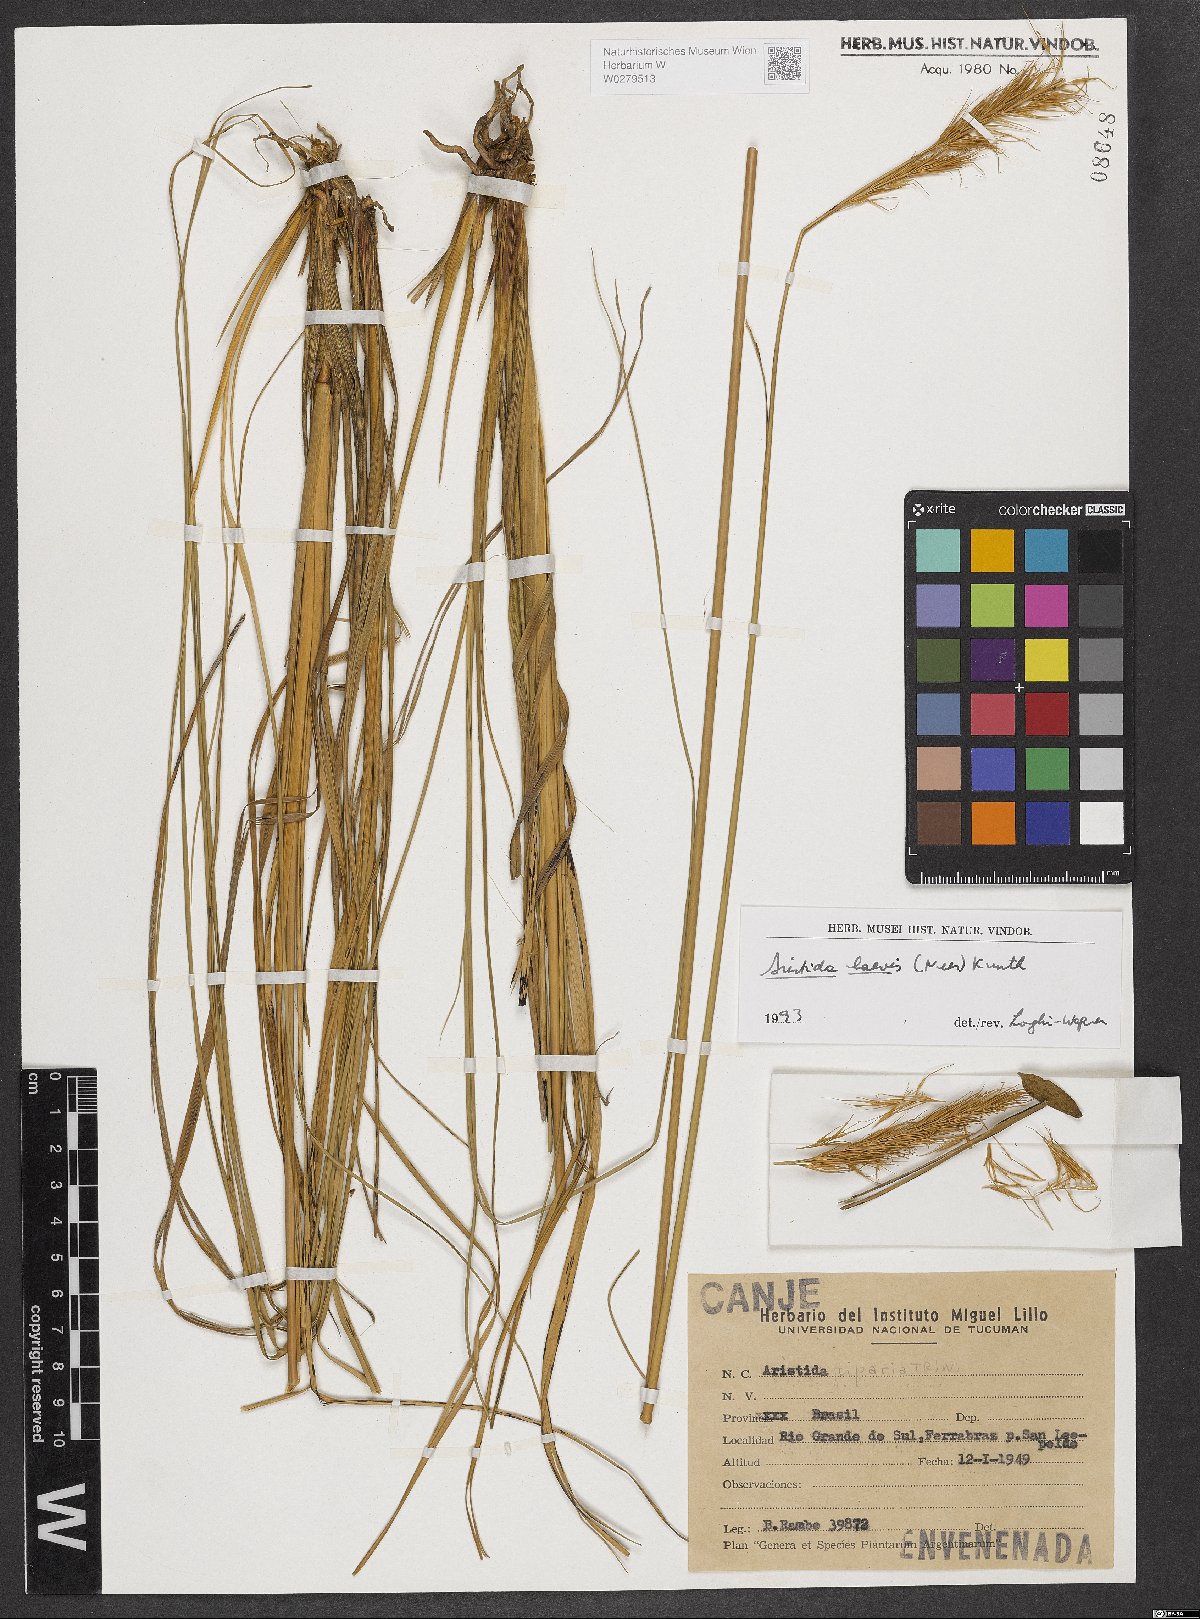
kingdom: Plantae
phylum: Tracheophyta
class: Liliopsida
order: Poales
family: Poaceae
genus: Aristida
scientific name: Aristida pallens
